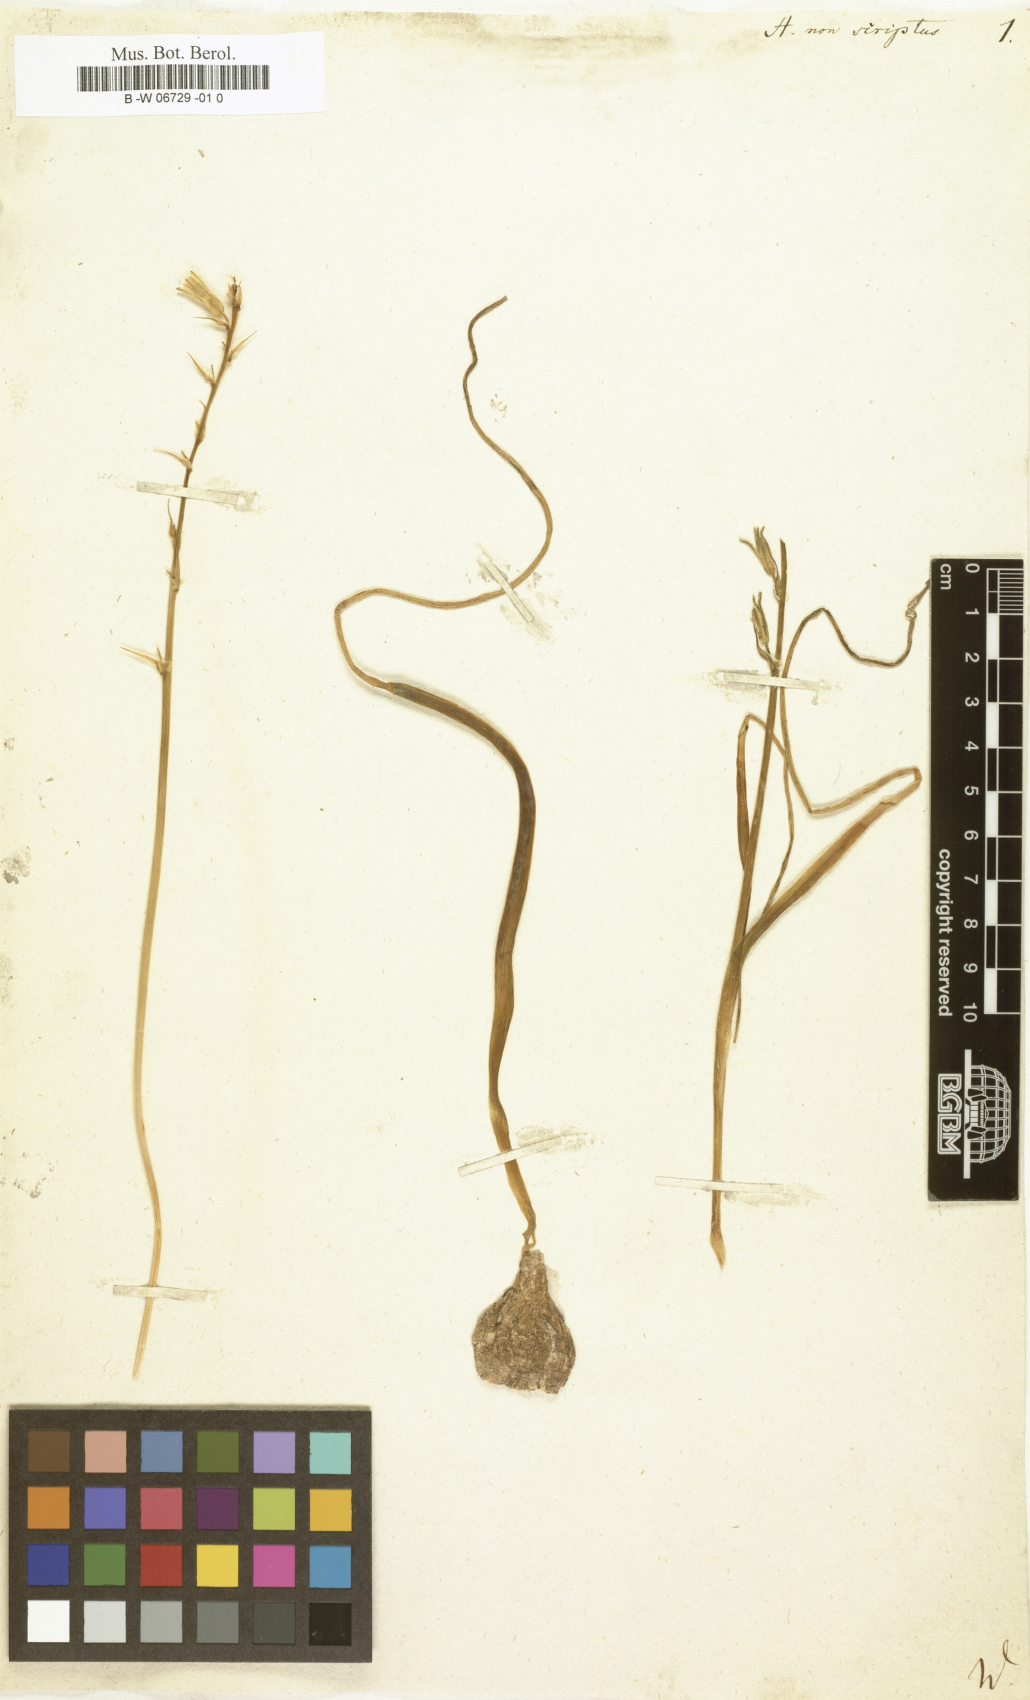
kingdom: Plantae
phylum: Tracheophyta
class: Liliopsida
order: Asparagales
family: Asparagaceae
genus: Hyacinthus
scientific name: Hyacinthus non-scriptus
